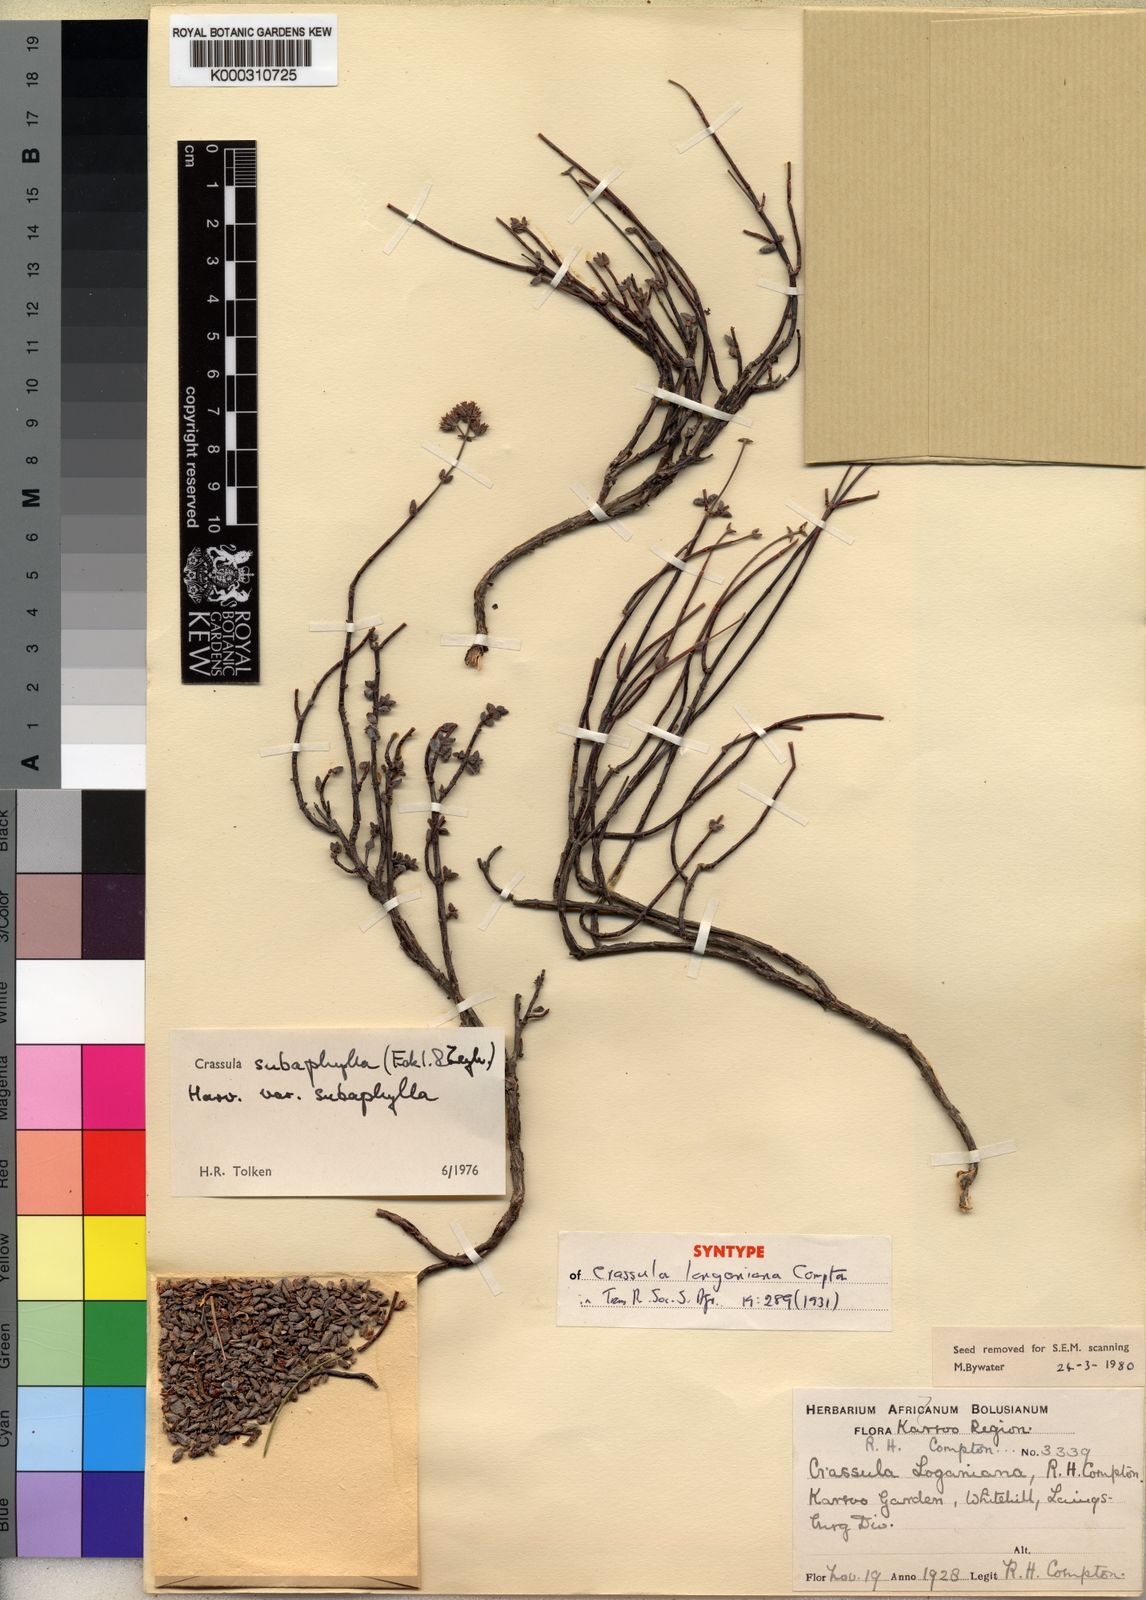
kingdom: Plantae
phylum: Tracheophyta
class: Magnoliopsida
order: Saxifragales
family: Crassulaceae
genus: Crassula
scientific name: Crassula subaphylla
